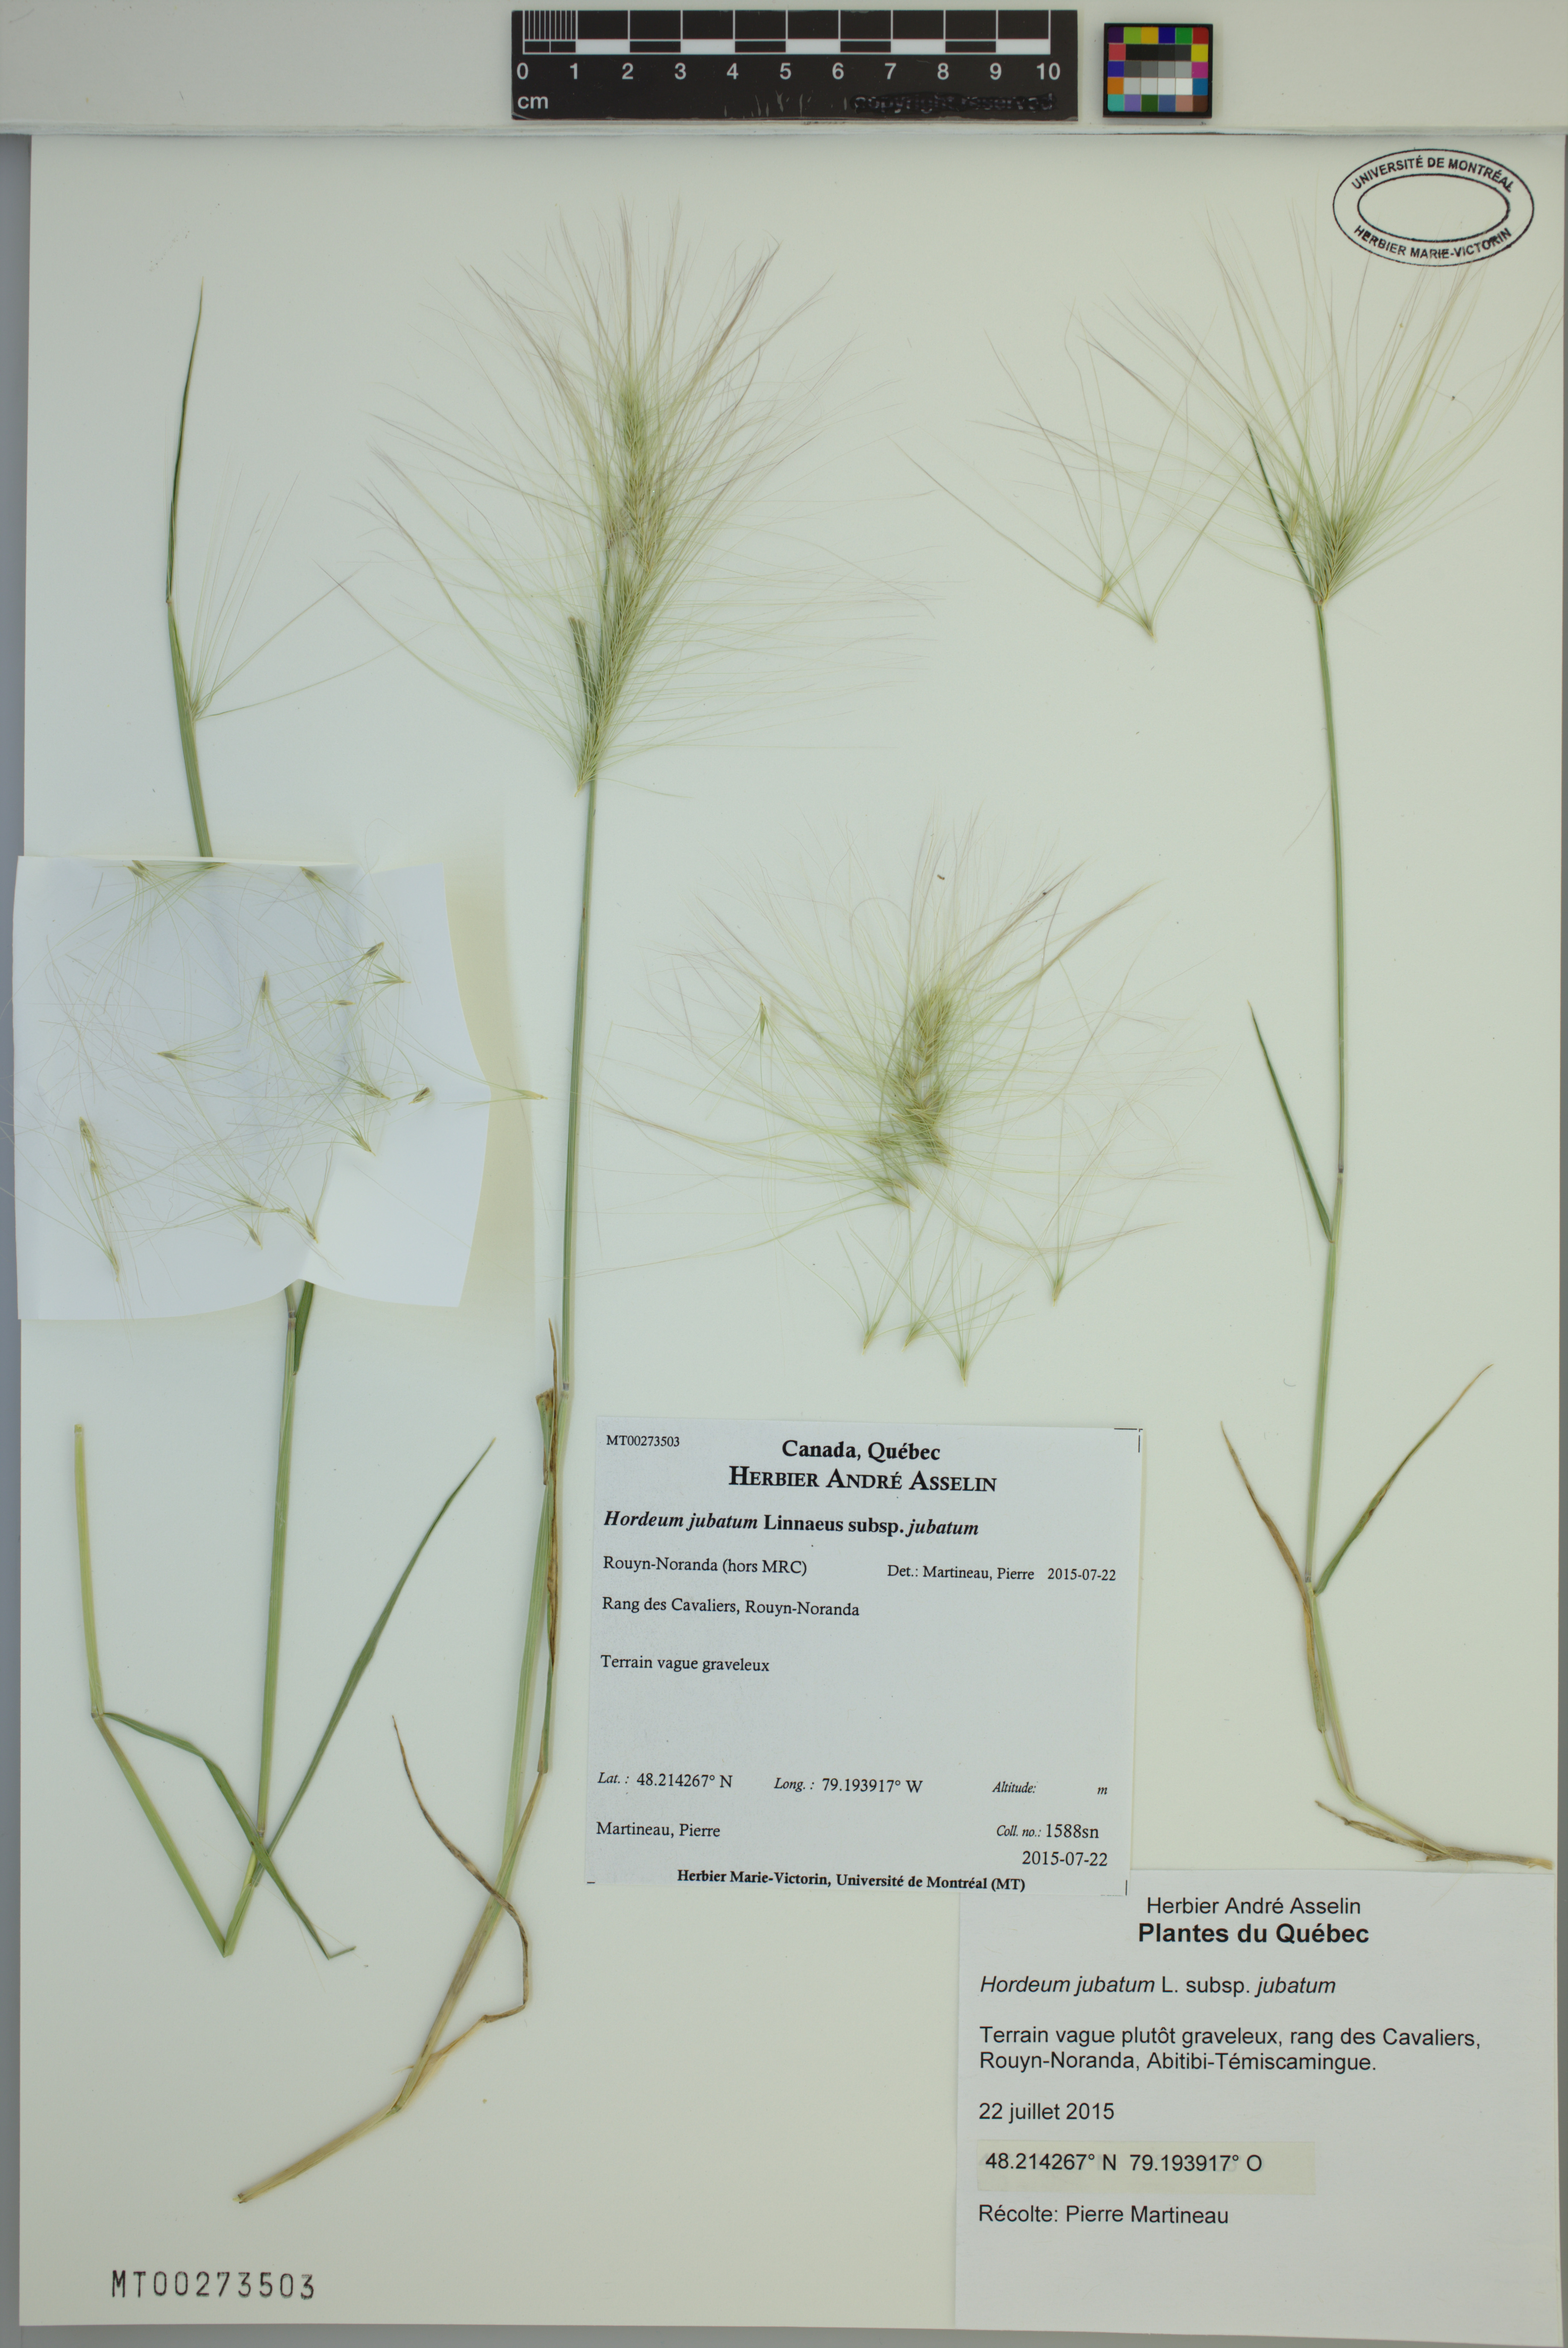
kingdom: Plantae
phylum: Tracheophyta
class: Liliopsida
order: Poales
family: Poaceae
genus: Hordeum
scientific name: Hordeum jubatum
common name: Foxtail barley
